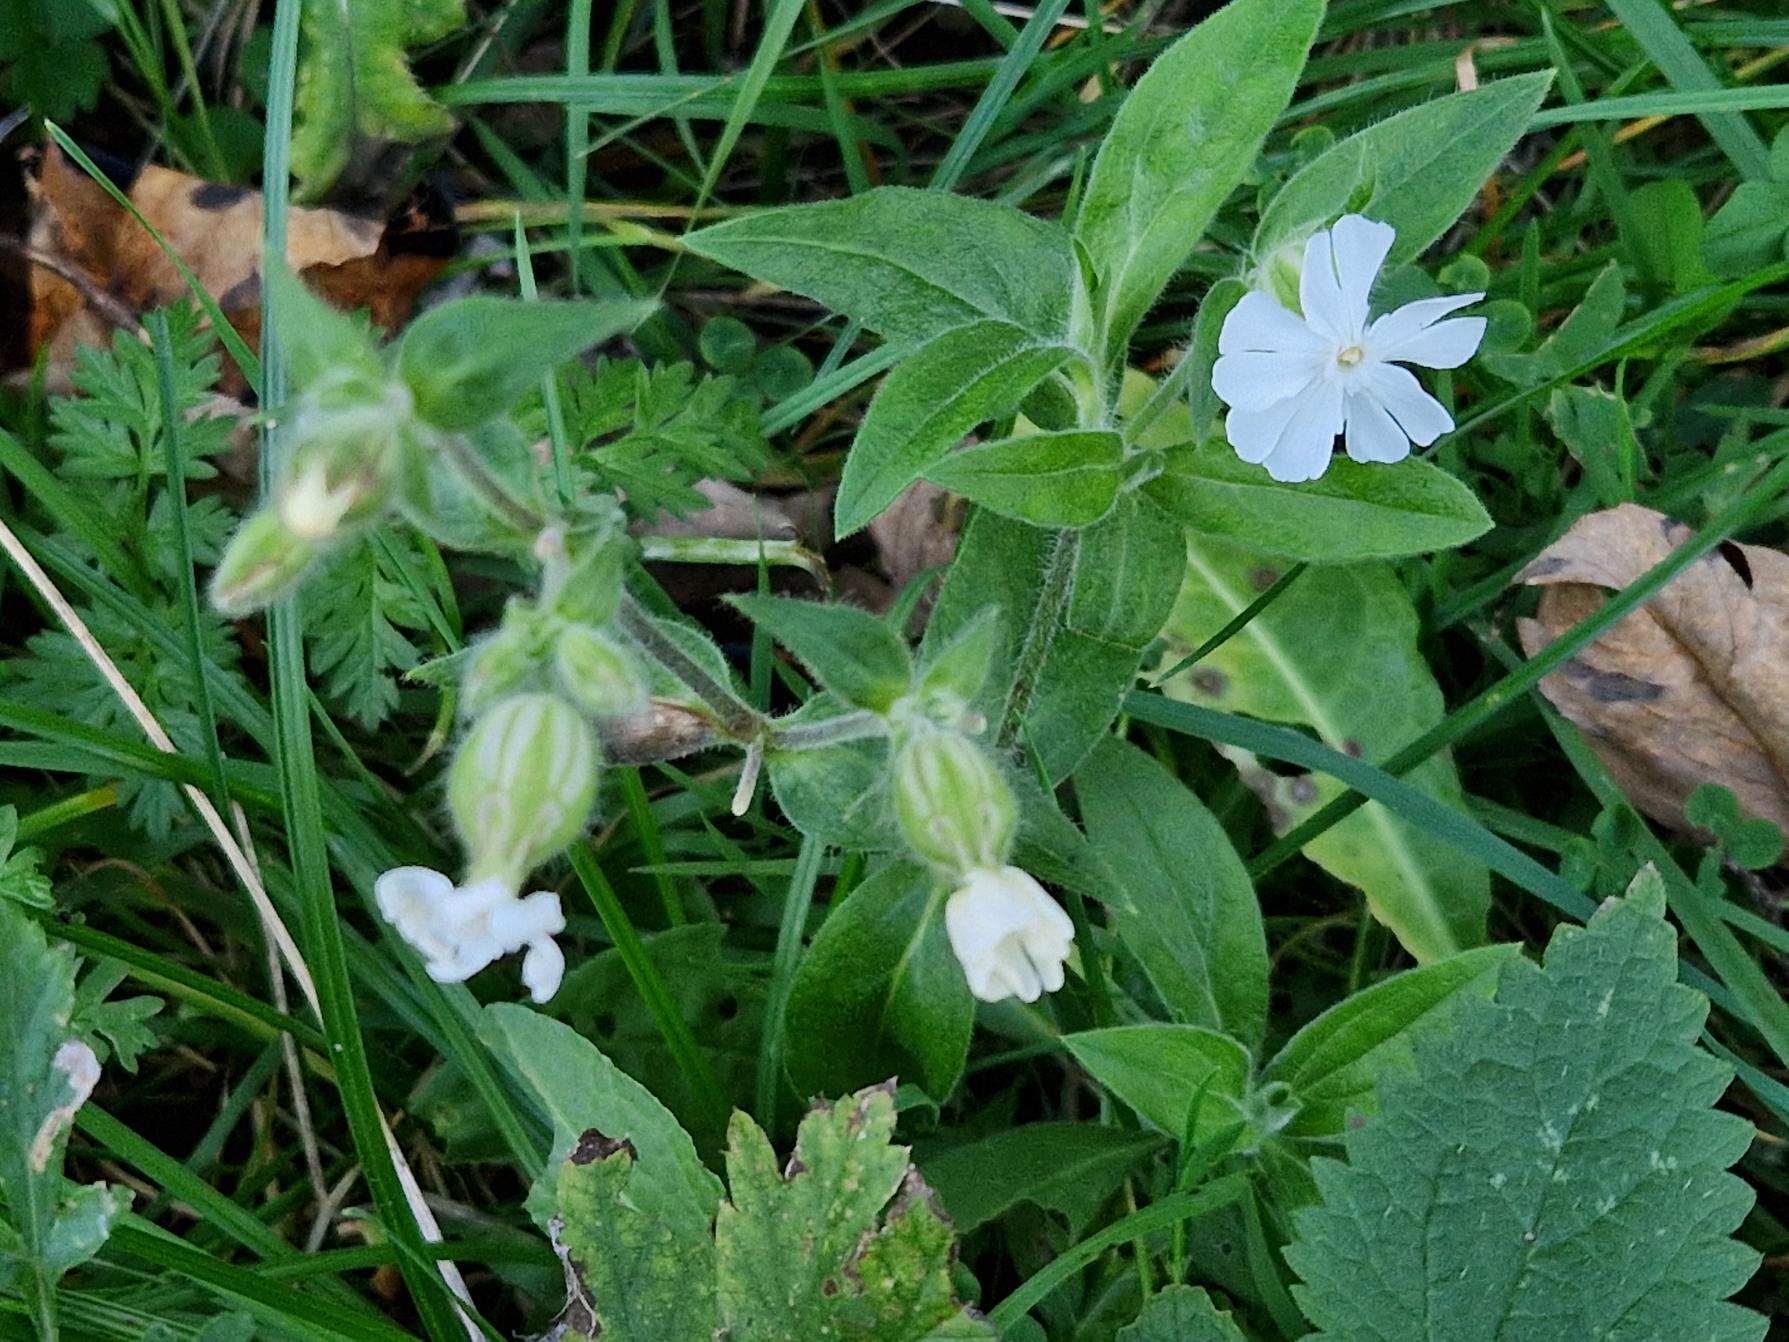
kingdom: Plantae
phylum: Tracheophyta
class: Magnoliopsida
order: Caryophyllales
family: Caryophyllaceae
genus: Silene
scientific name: Silene latifolia
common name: Aftenpragtstjerne
